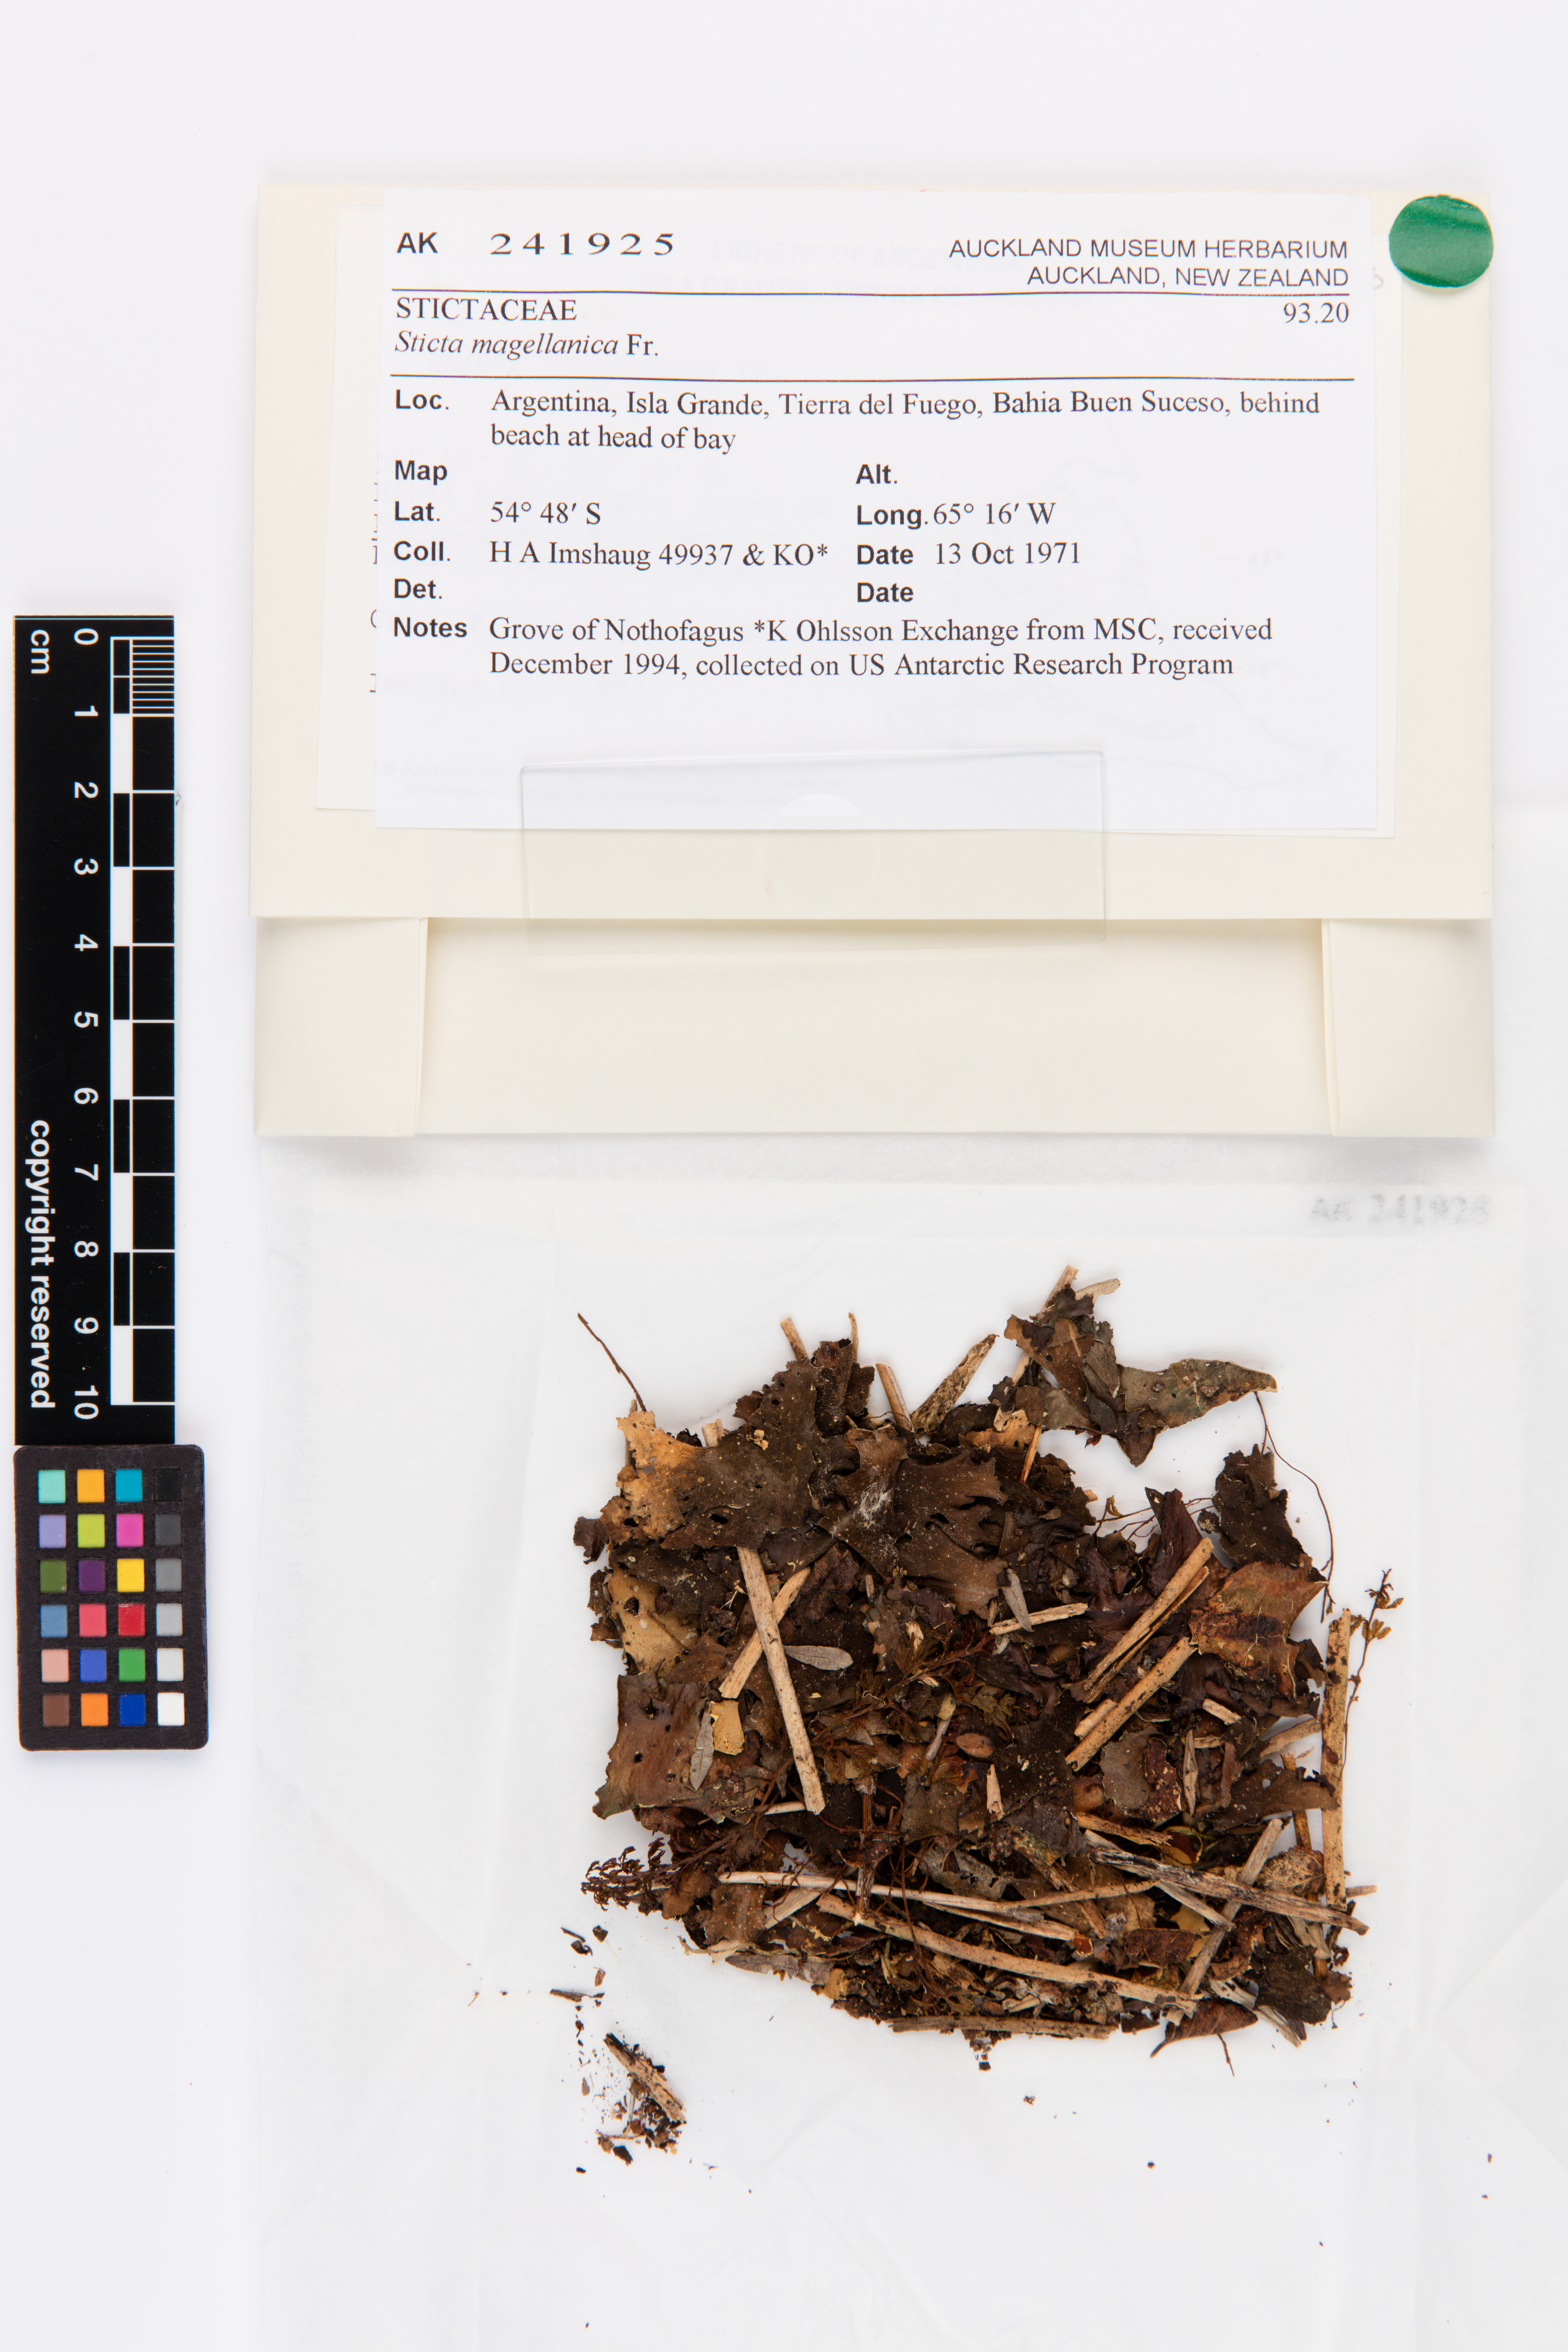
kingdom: Fungi
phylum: Ascomycota
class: Lecanoromycetes
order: Peltigerales
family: Lobariaceae
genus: Sticta
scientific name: Sticta
